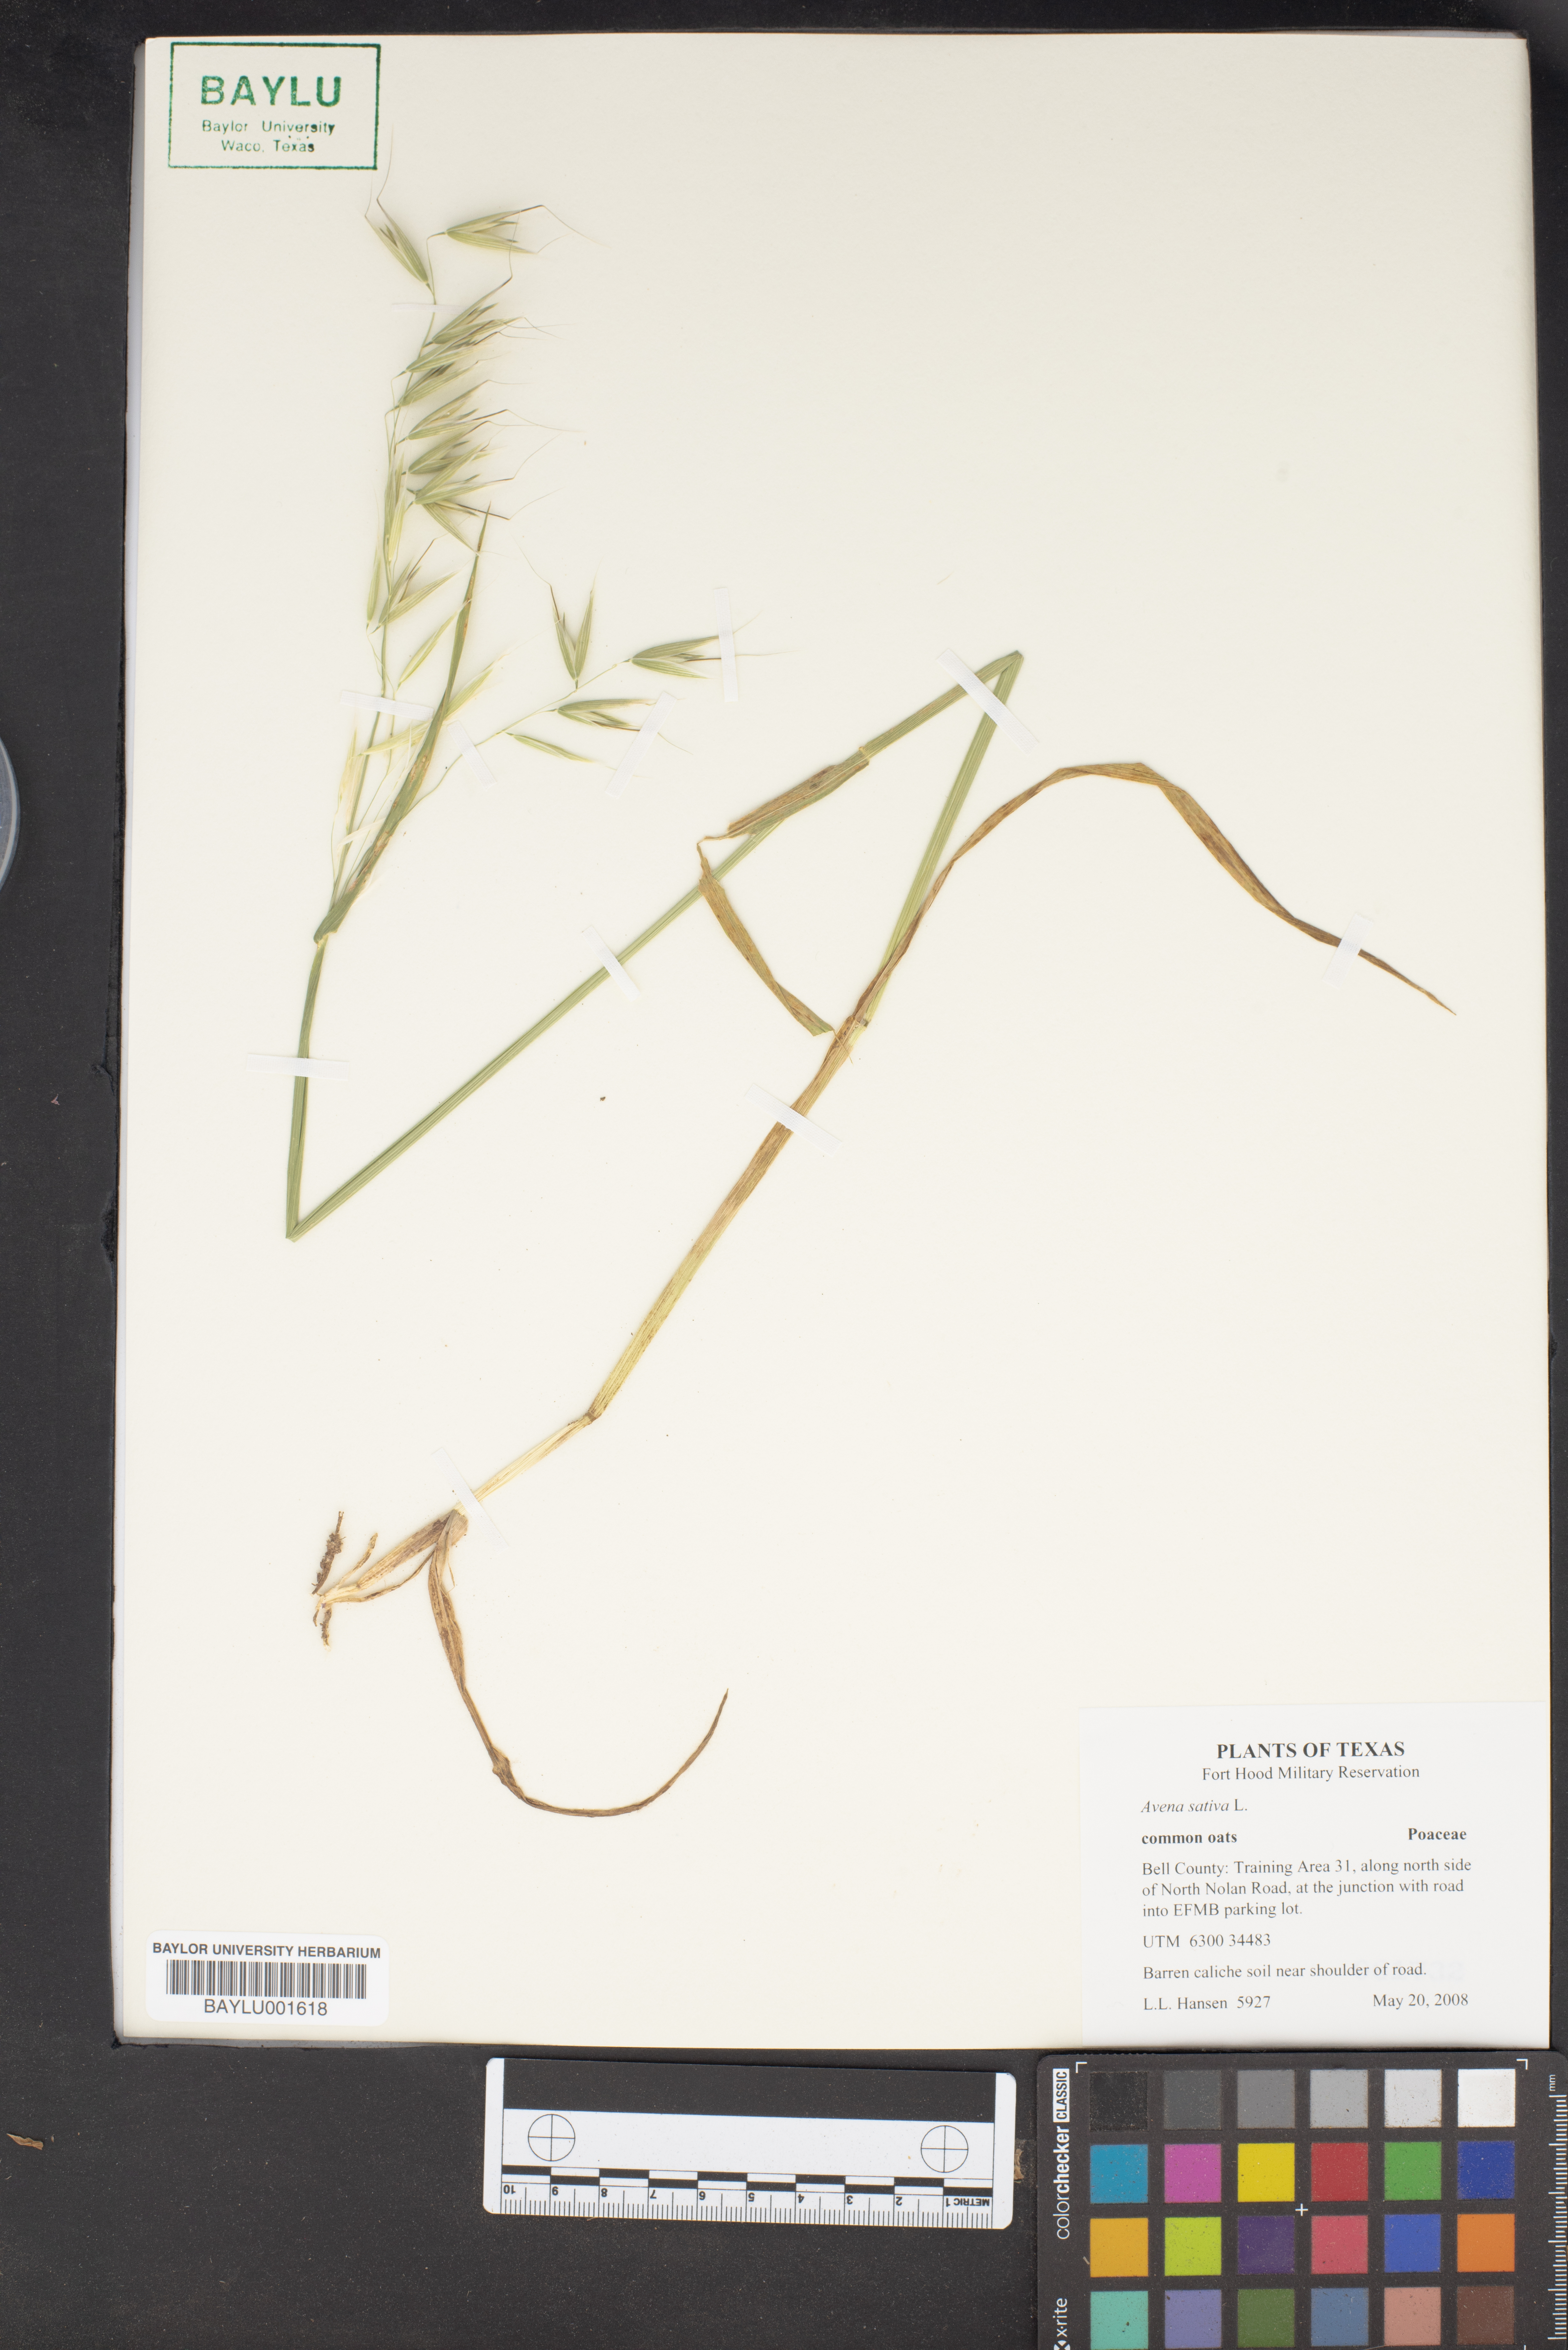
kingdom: Plantae
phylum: Tracheophyta
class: Liliopsida
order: Poales
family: Poaceae
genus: Avena
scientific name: Avena sativa
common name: Oat
